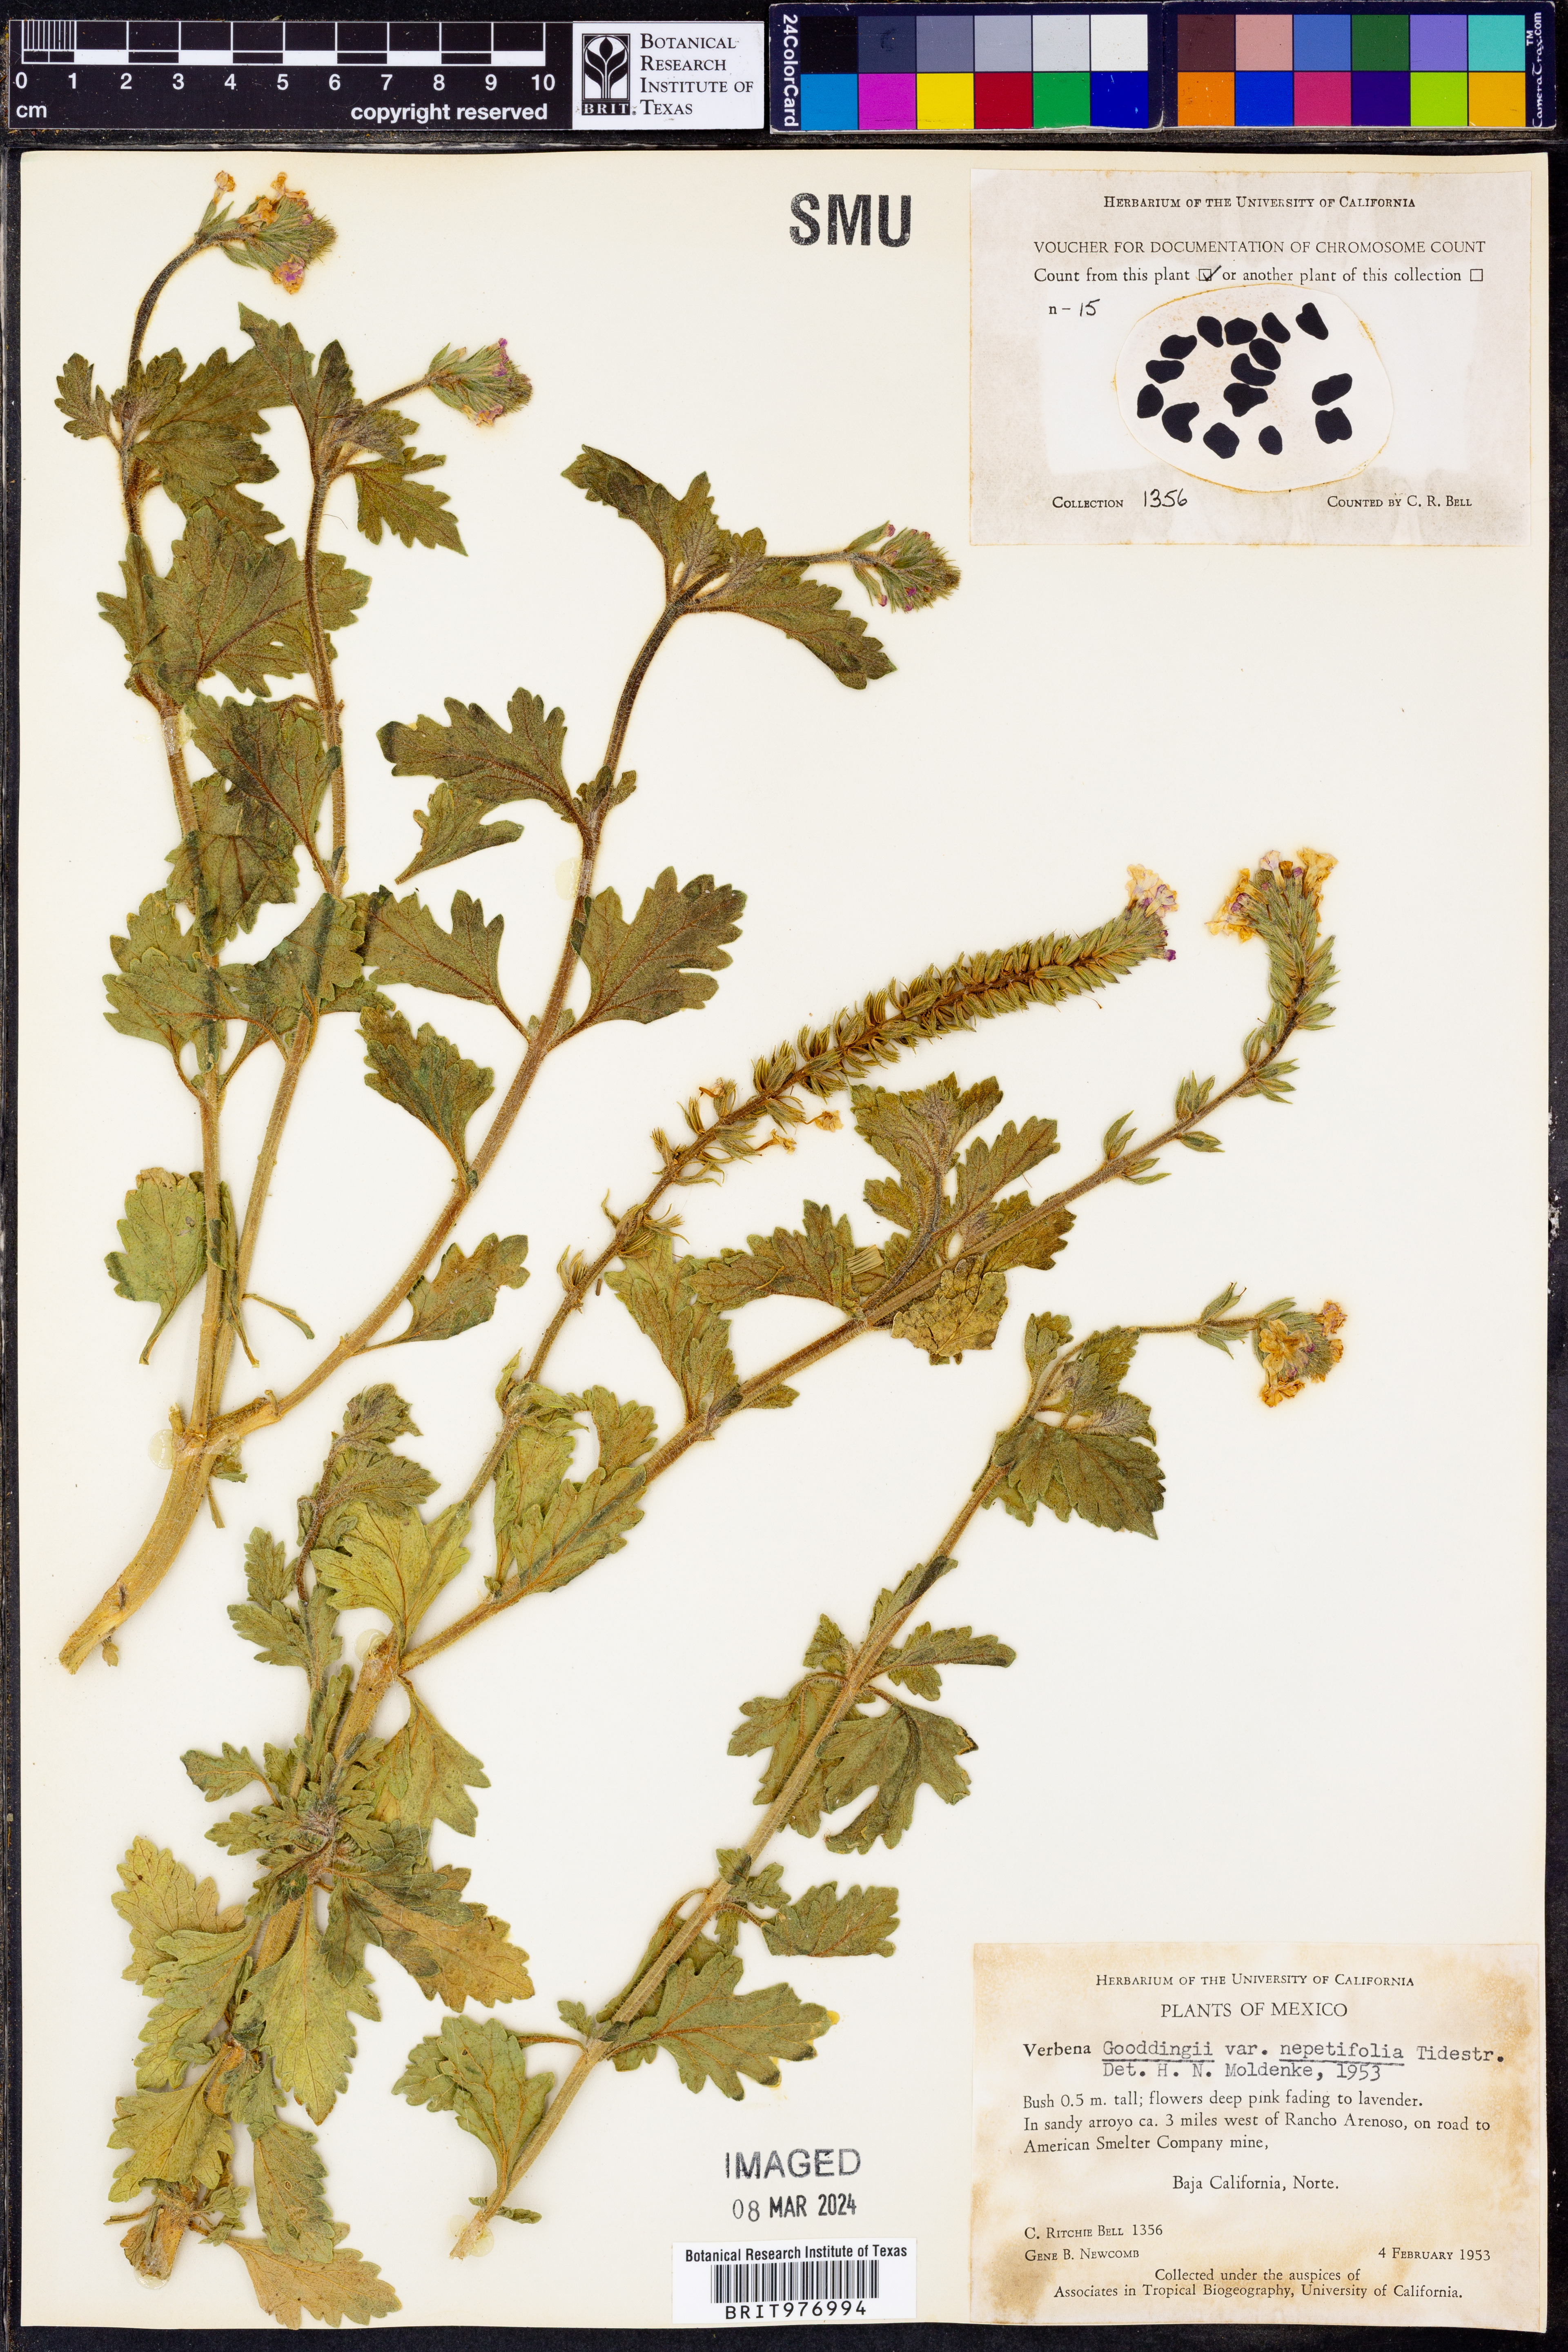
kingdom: Plantae
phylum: Tracheophyta
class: Magnoliopsida
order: Lamiales
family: Verbenaceae
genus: Verbena
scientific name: Verbena gooddingii
